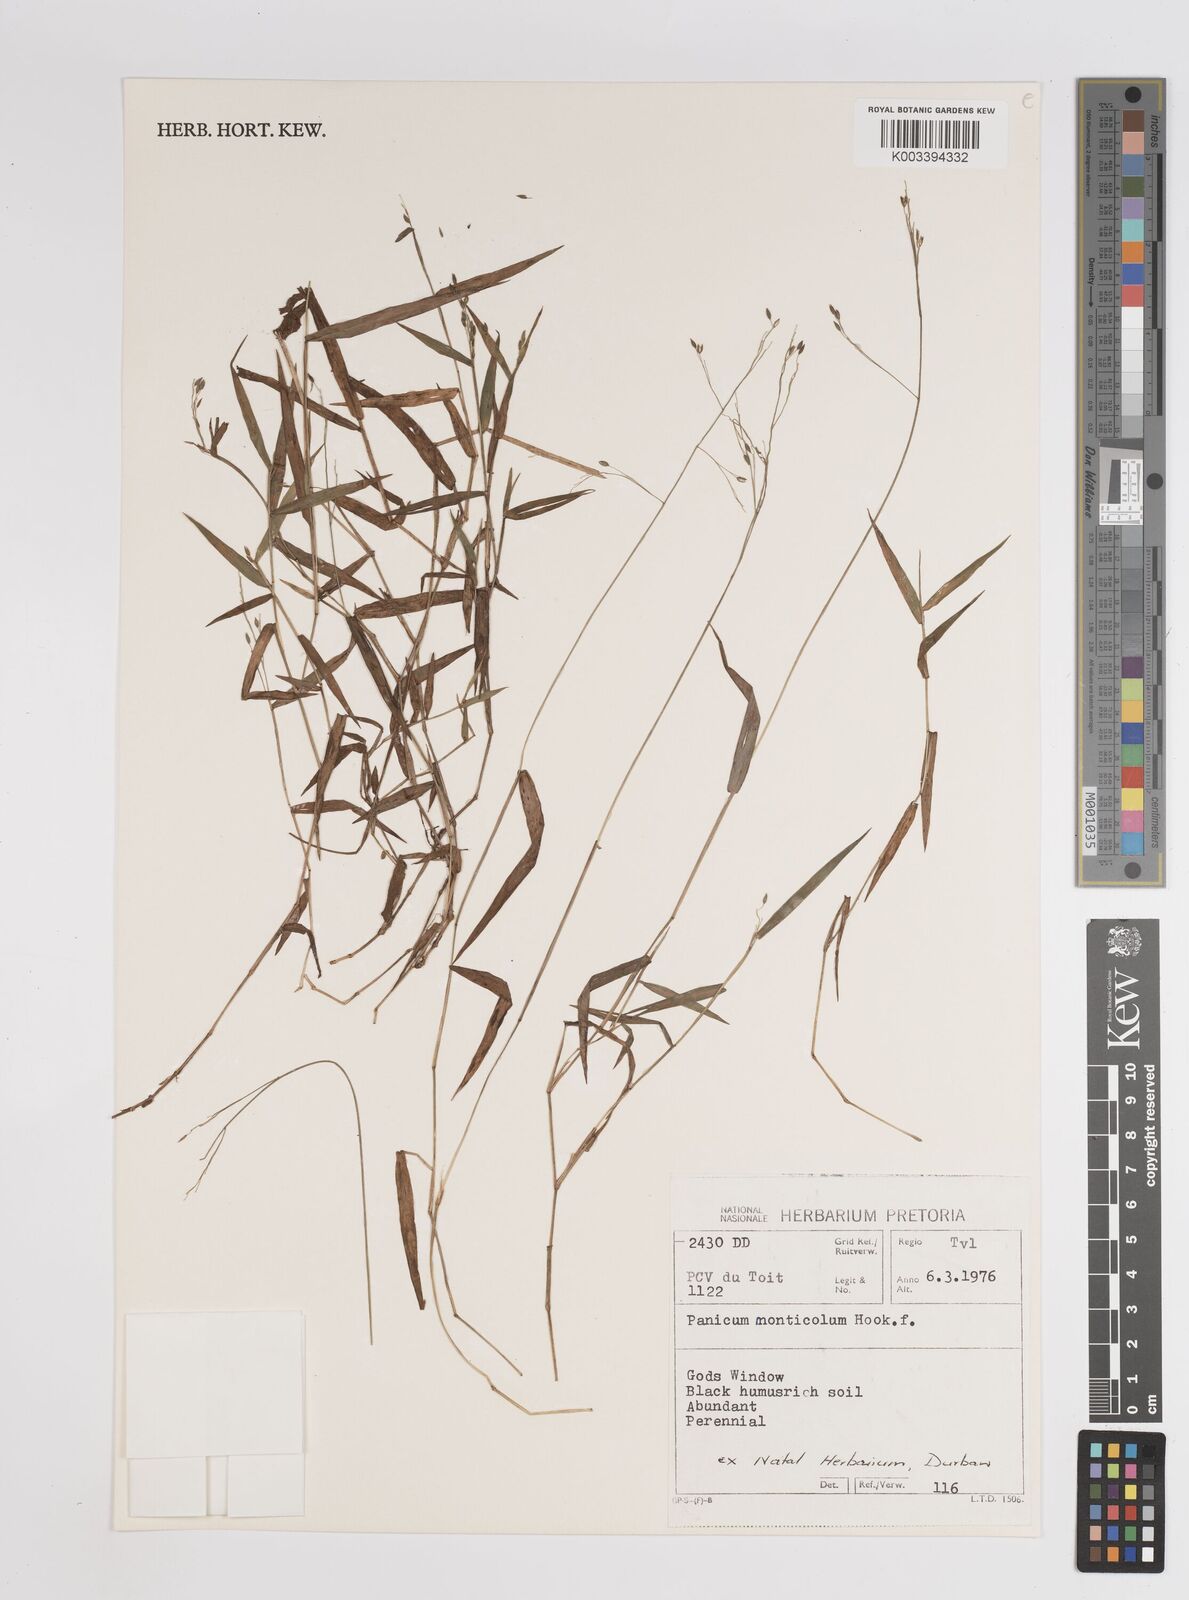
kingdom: Plantae
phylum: Tracheophyta
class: Liliopsida
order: Poales
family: Poaceae
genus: Panicum
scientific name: Panicum monticola
